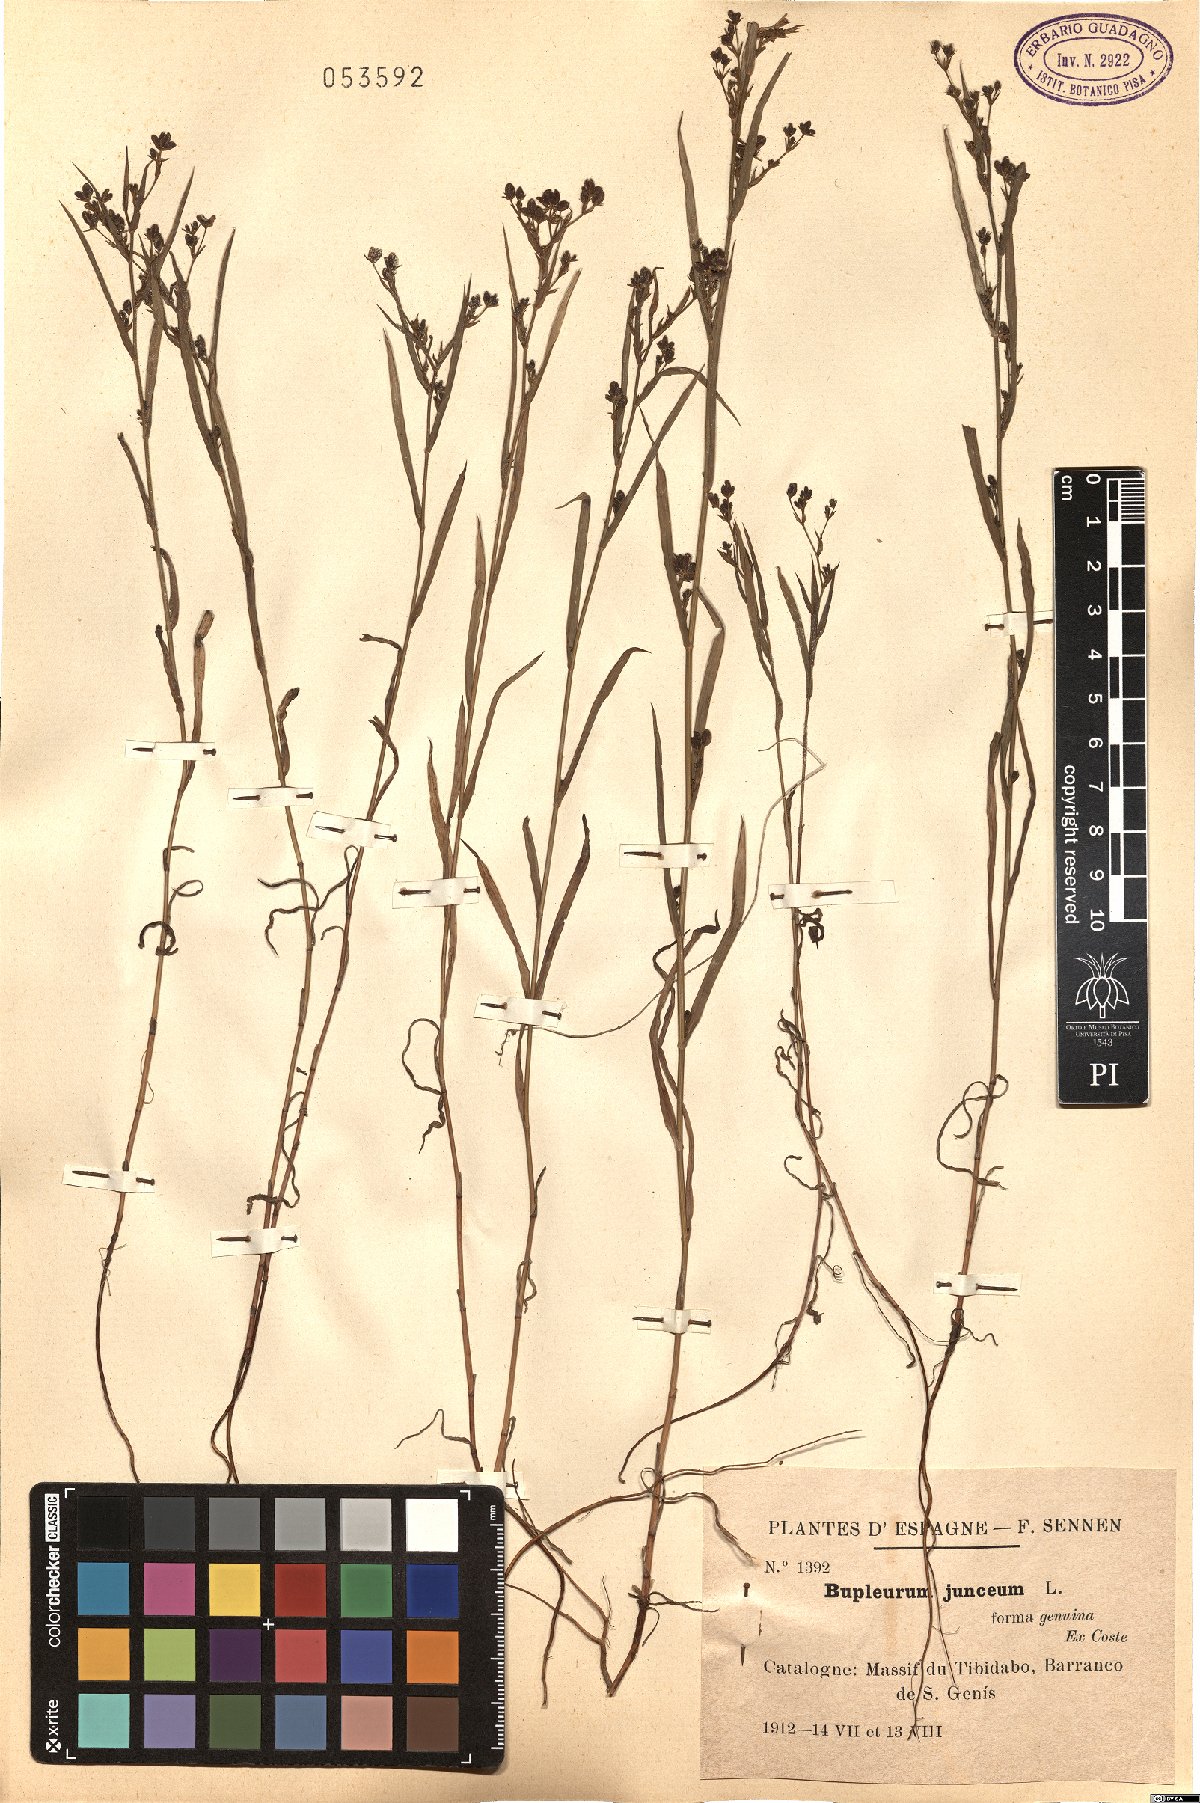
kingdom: Plantae
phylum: Tracheophyta
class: Magnoliopsida
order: Apiales
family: Apiaceae
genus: Bupleurum
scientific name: Bupleurum praealtum
